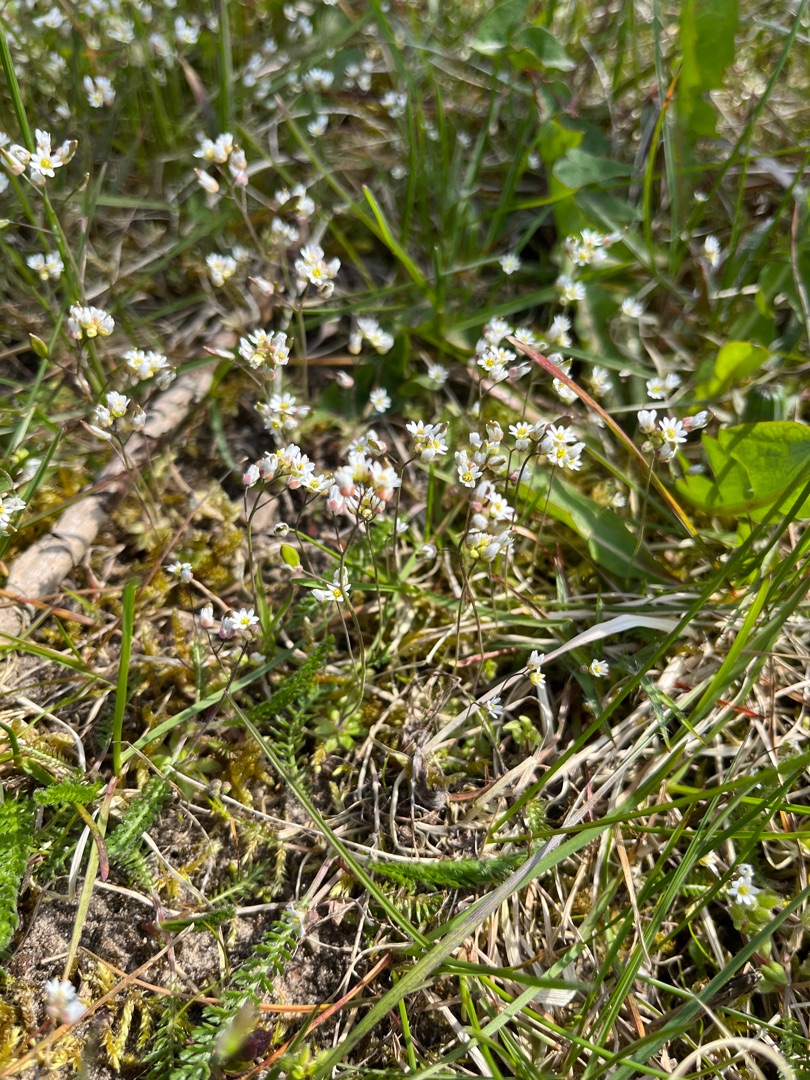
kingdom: Plantae
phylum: Tracheophyta
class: Magnoliopsida
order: Brassicales
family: Brassicaceae
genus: Draba
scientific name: Draba verna
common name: Vår-gæslingeblomst
